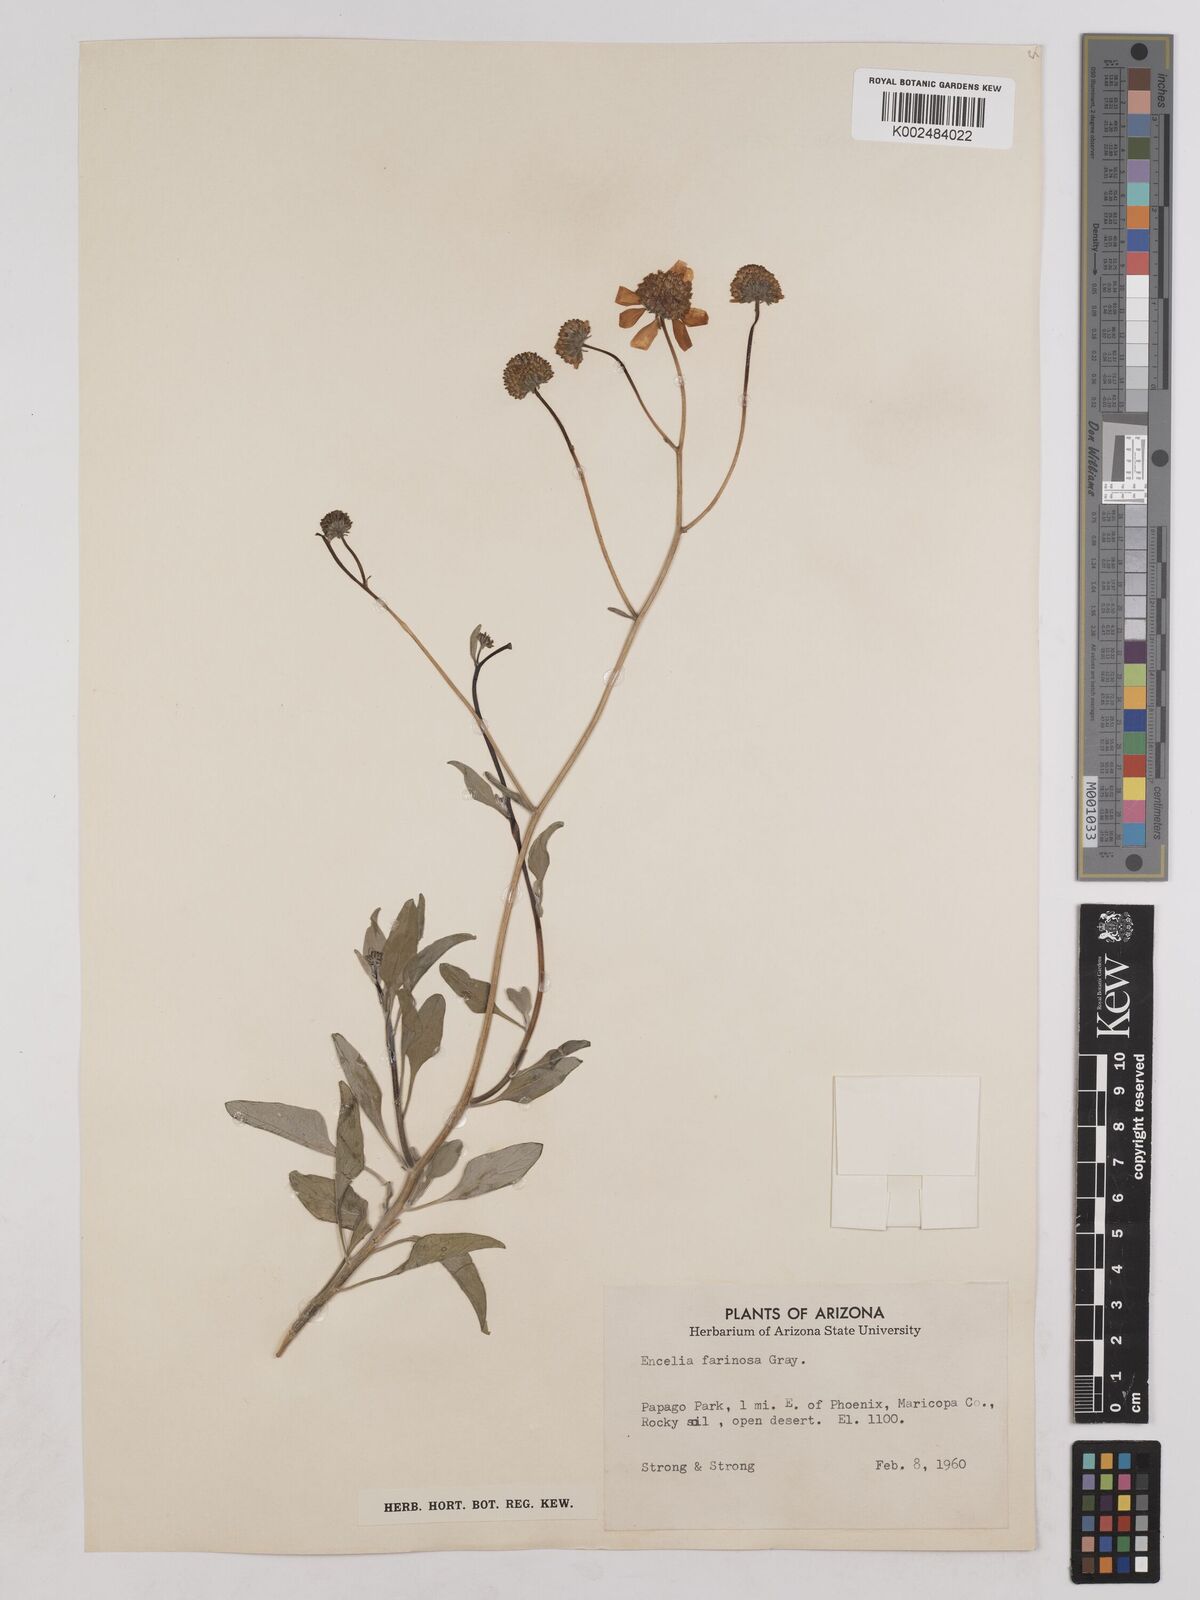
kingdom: Plantae
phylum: Tracheophyta
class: Magnoliopsida
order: Asterales
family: Asteraceae
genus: Encelia
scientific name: Encelia farinosa
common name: Brittlebush
